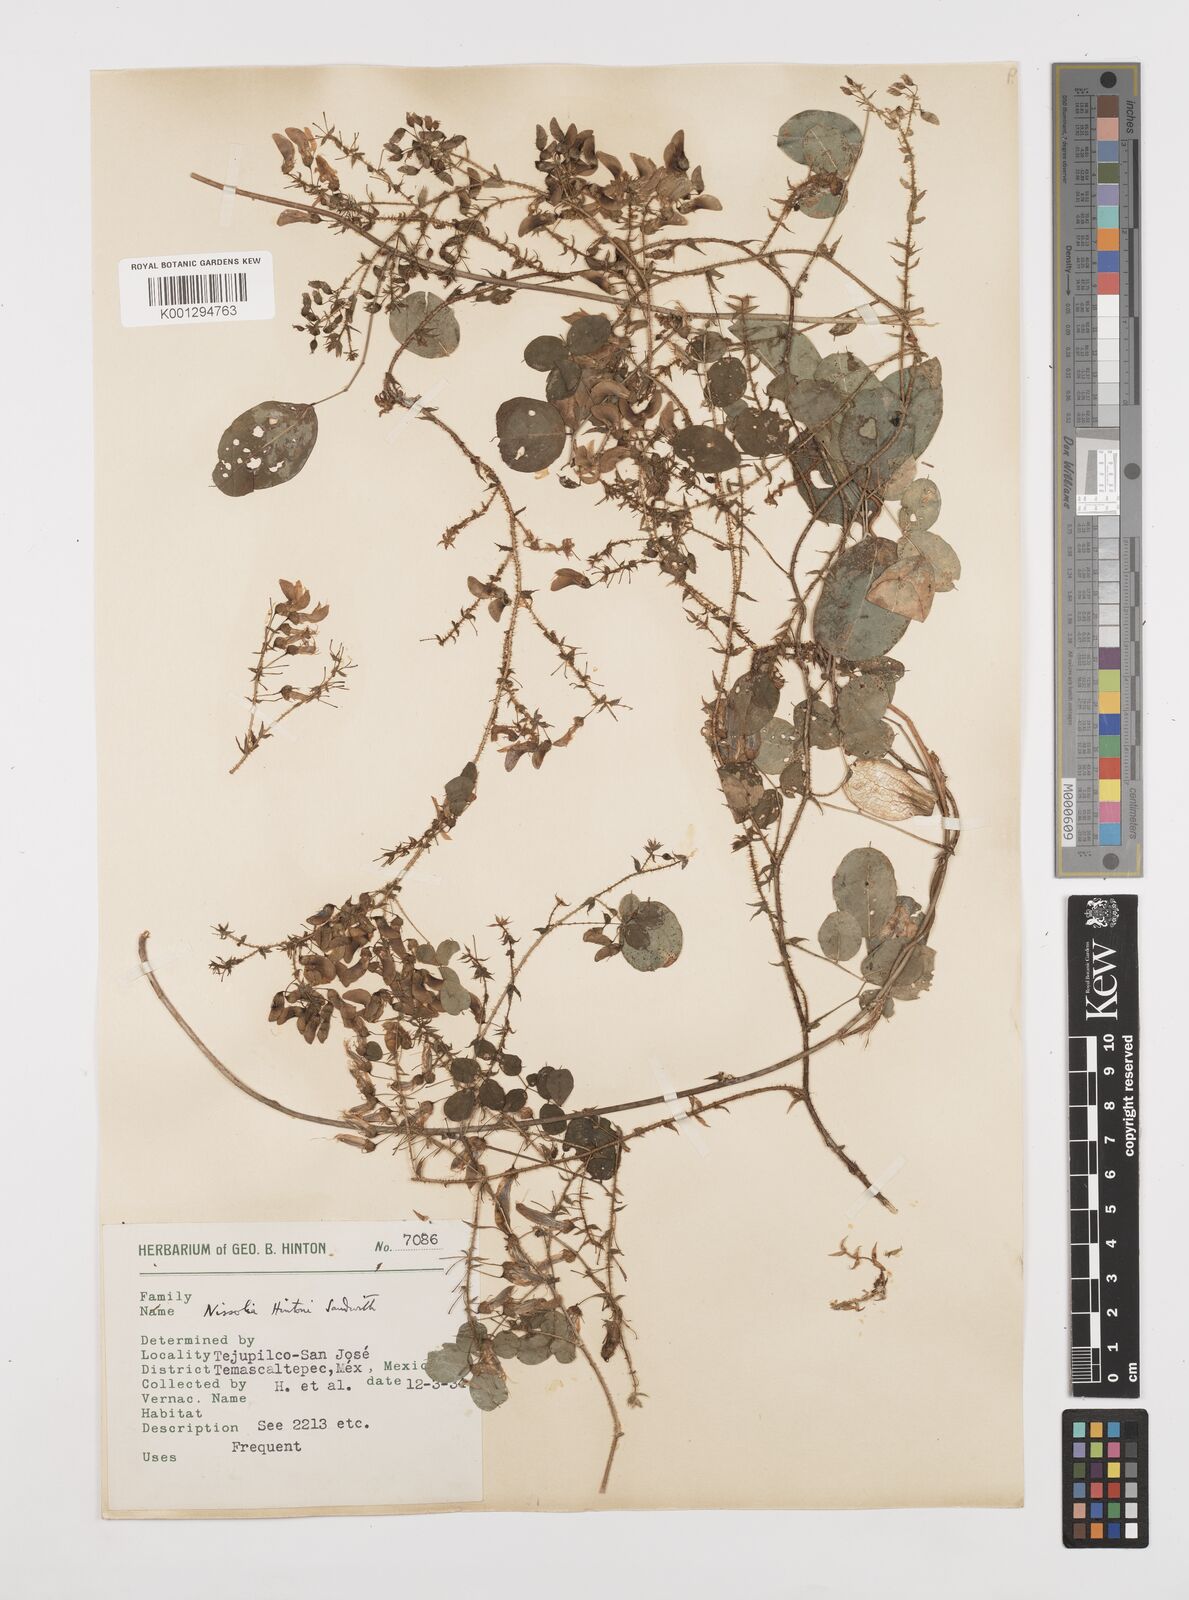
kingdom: Plantae
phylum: Tracheophyta
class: Magnoliopsida
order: Fabales
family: Fabaceae
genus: Nissolia
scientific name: Nissolia hintonii
